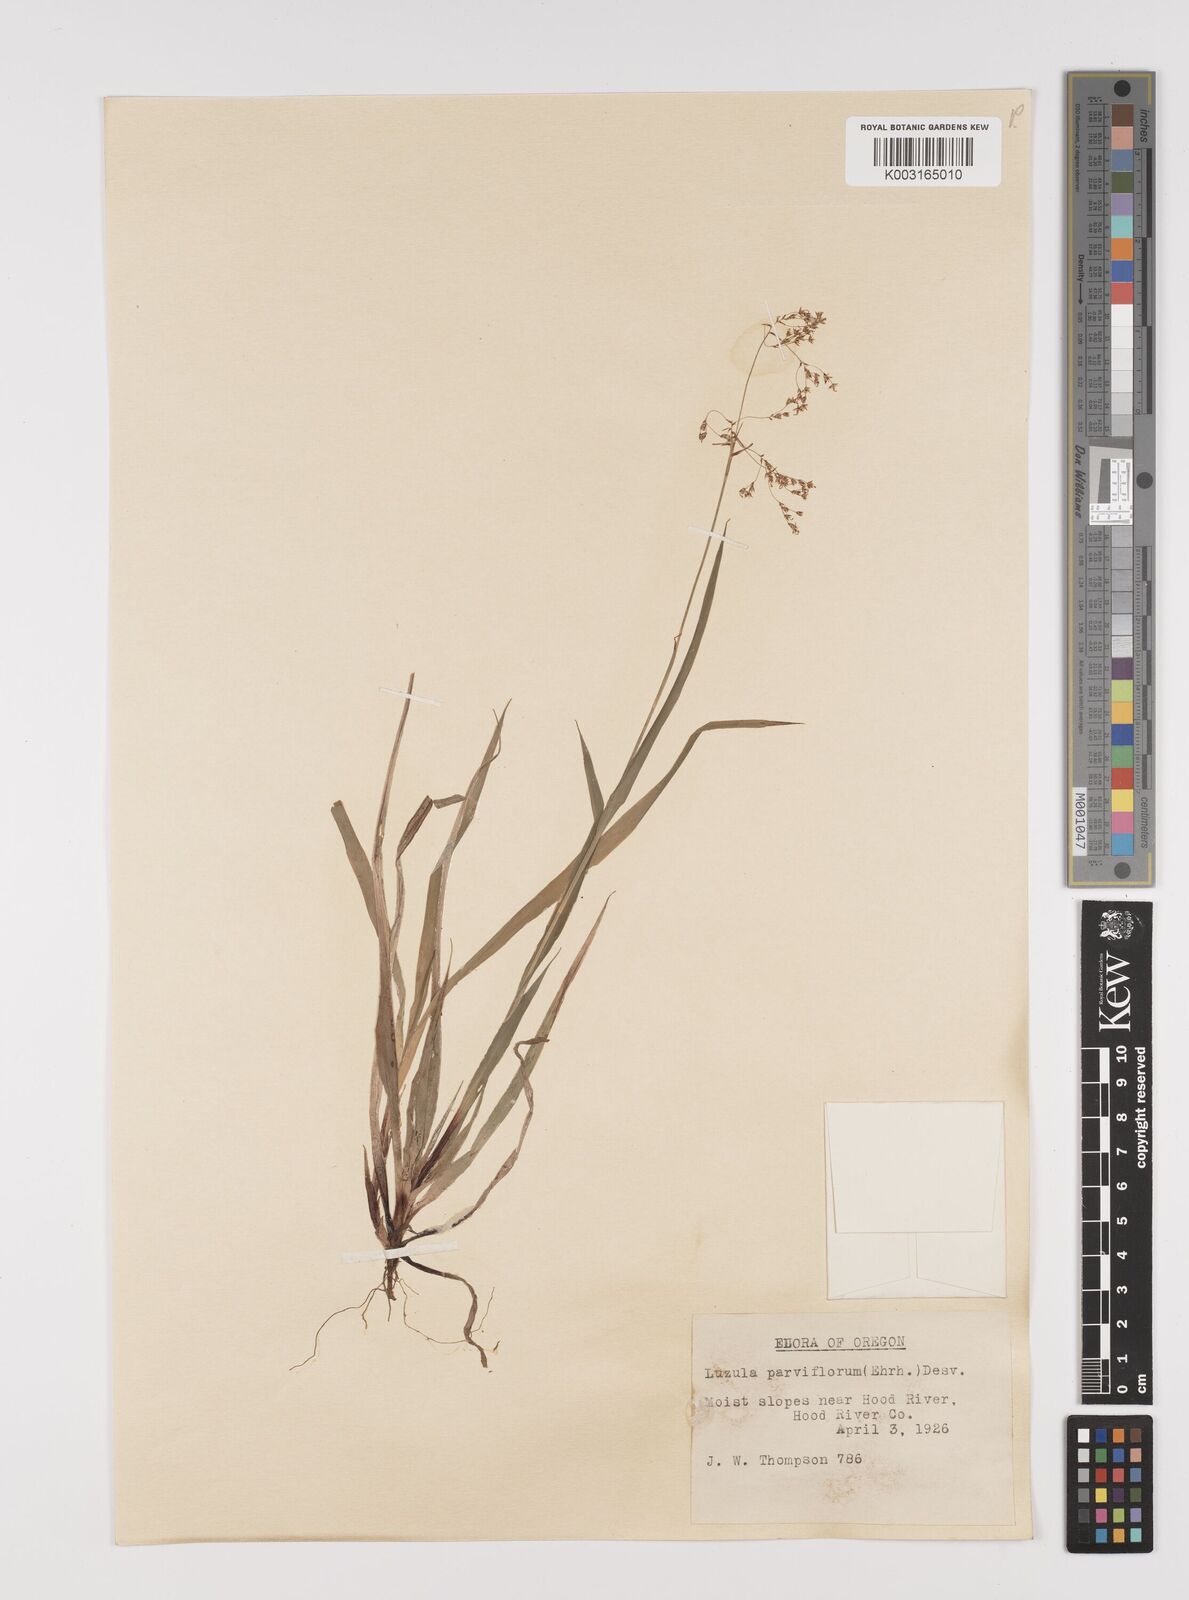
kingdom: Plantae
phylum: Tracheophyta
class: Liliopsida
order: Poales
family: Juncaceae
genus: Luzula
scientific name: Luzula parviflora
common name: Millet woodrush
